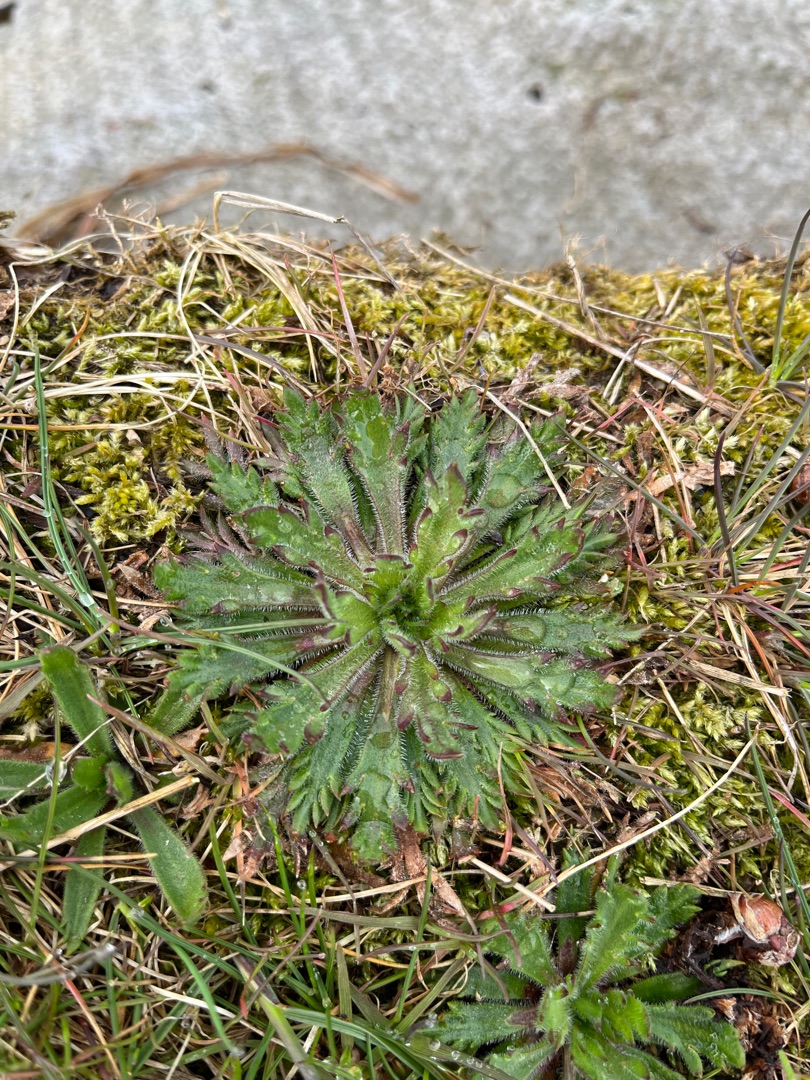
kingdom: Plantae
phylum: Tracheophyta
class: Magnoliopsida
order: Lamiales
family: Plantaginaceae
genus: Plantago
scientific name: Plantago coronopus
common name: Fliget vejbred
